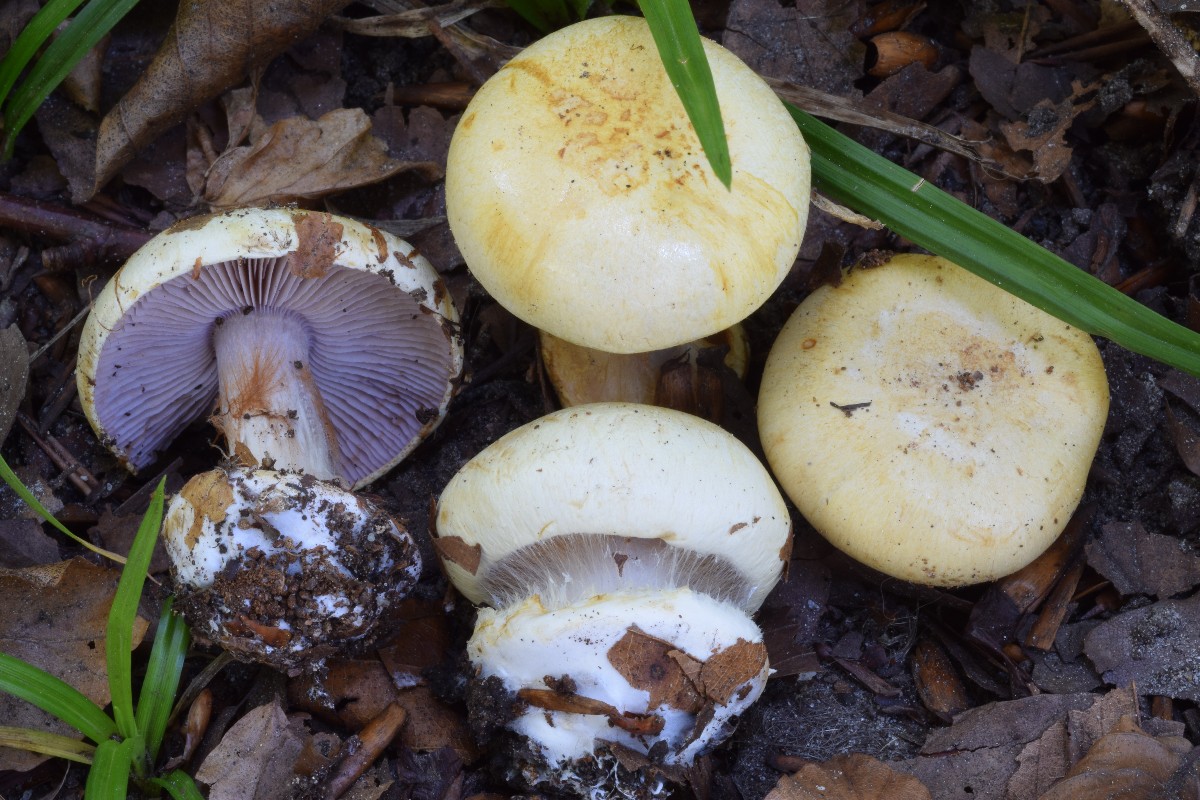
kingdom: Fungi
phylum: Basidiomycota
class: Agaricomycetes
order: Agaricales
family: Cortinariaceae
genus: Calonarius
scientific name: Calonarius catharinae
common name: Katrines slørhat
